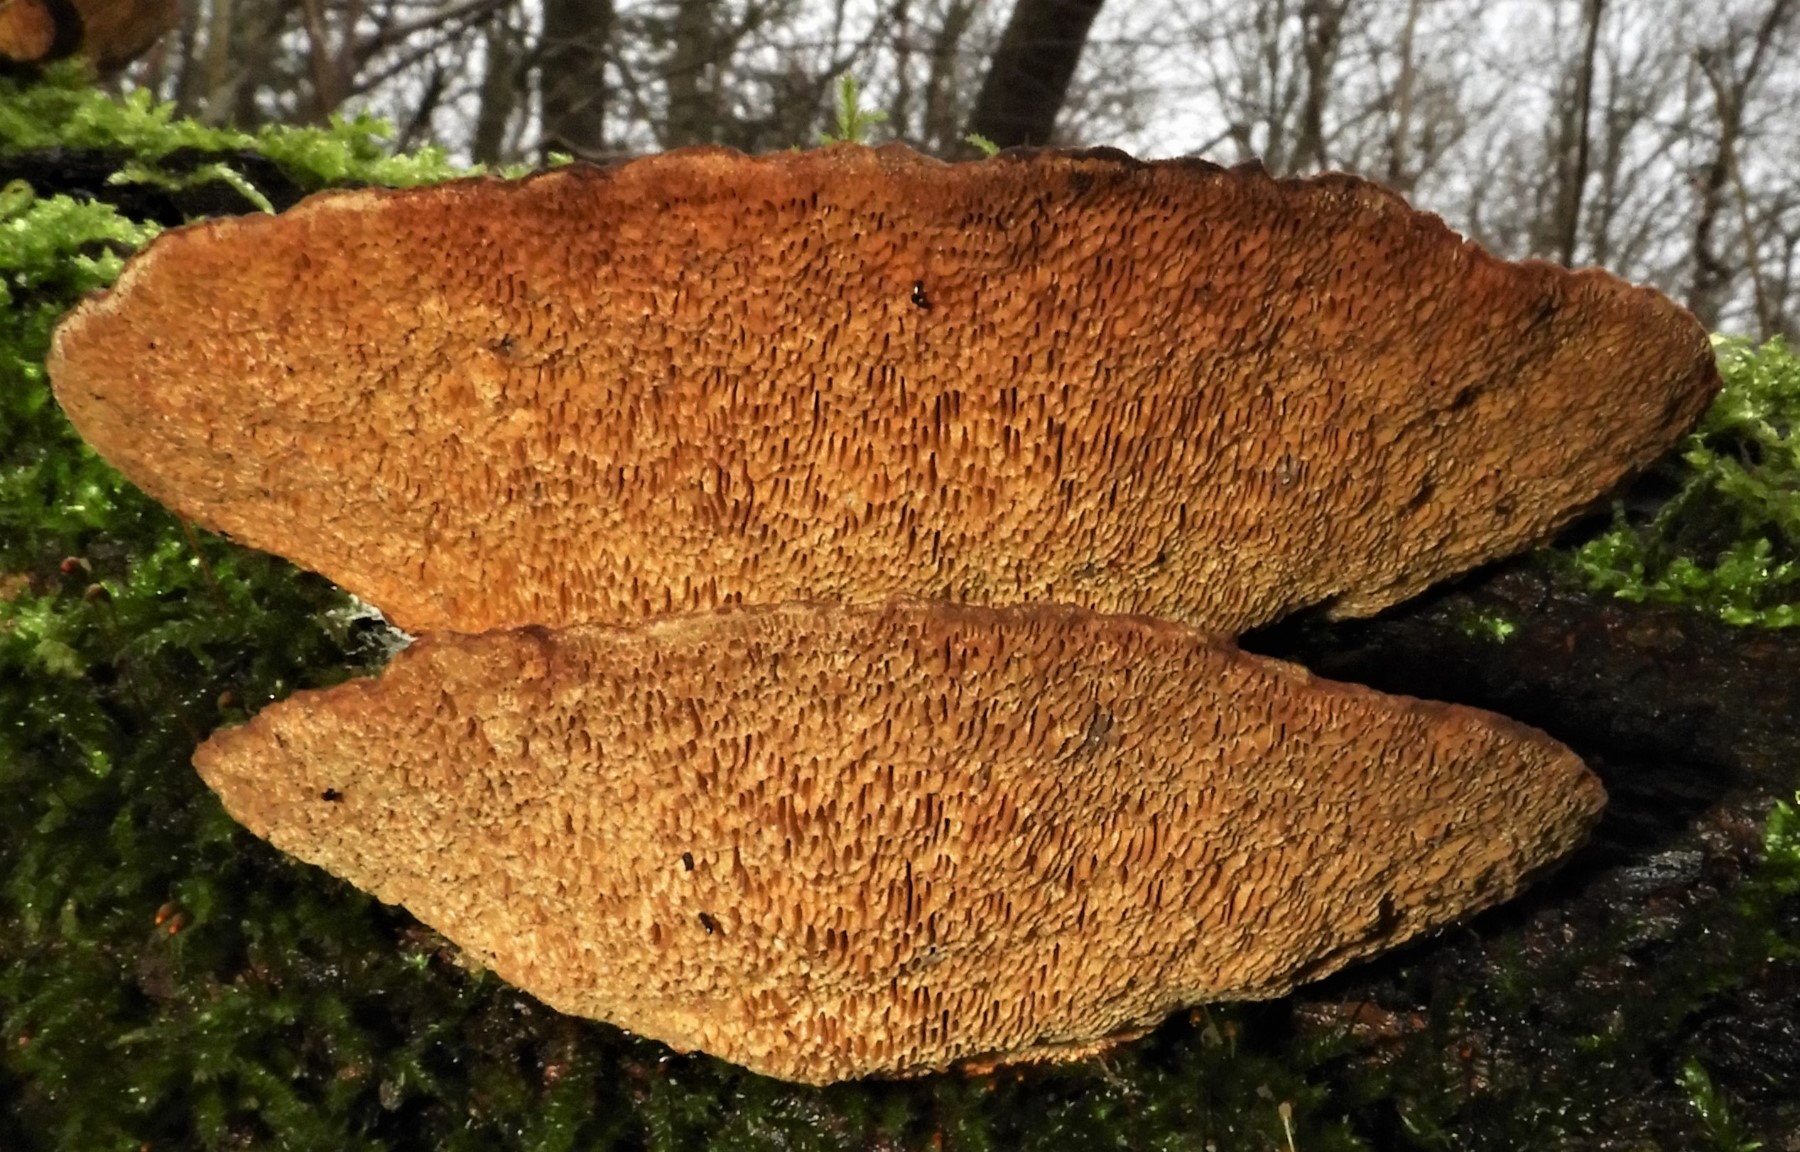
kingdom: Fungi
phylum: Basidiomycota
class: Agaricomycetes
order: Polyporales
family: Polyporaceae
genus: Daedaleopsis
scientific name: Daedaleopsis confragosa
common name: rødmende læderporesvamp
